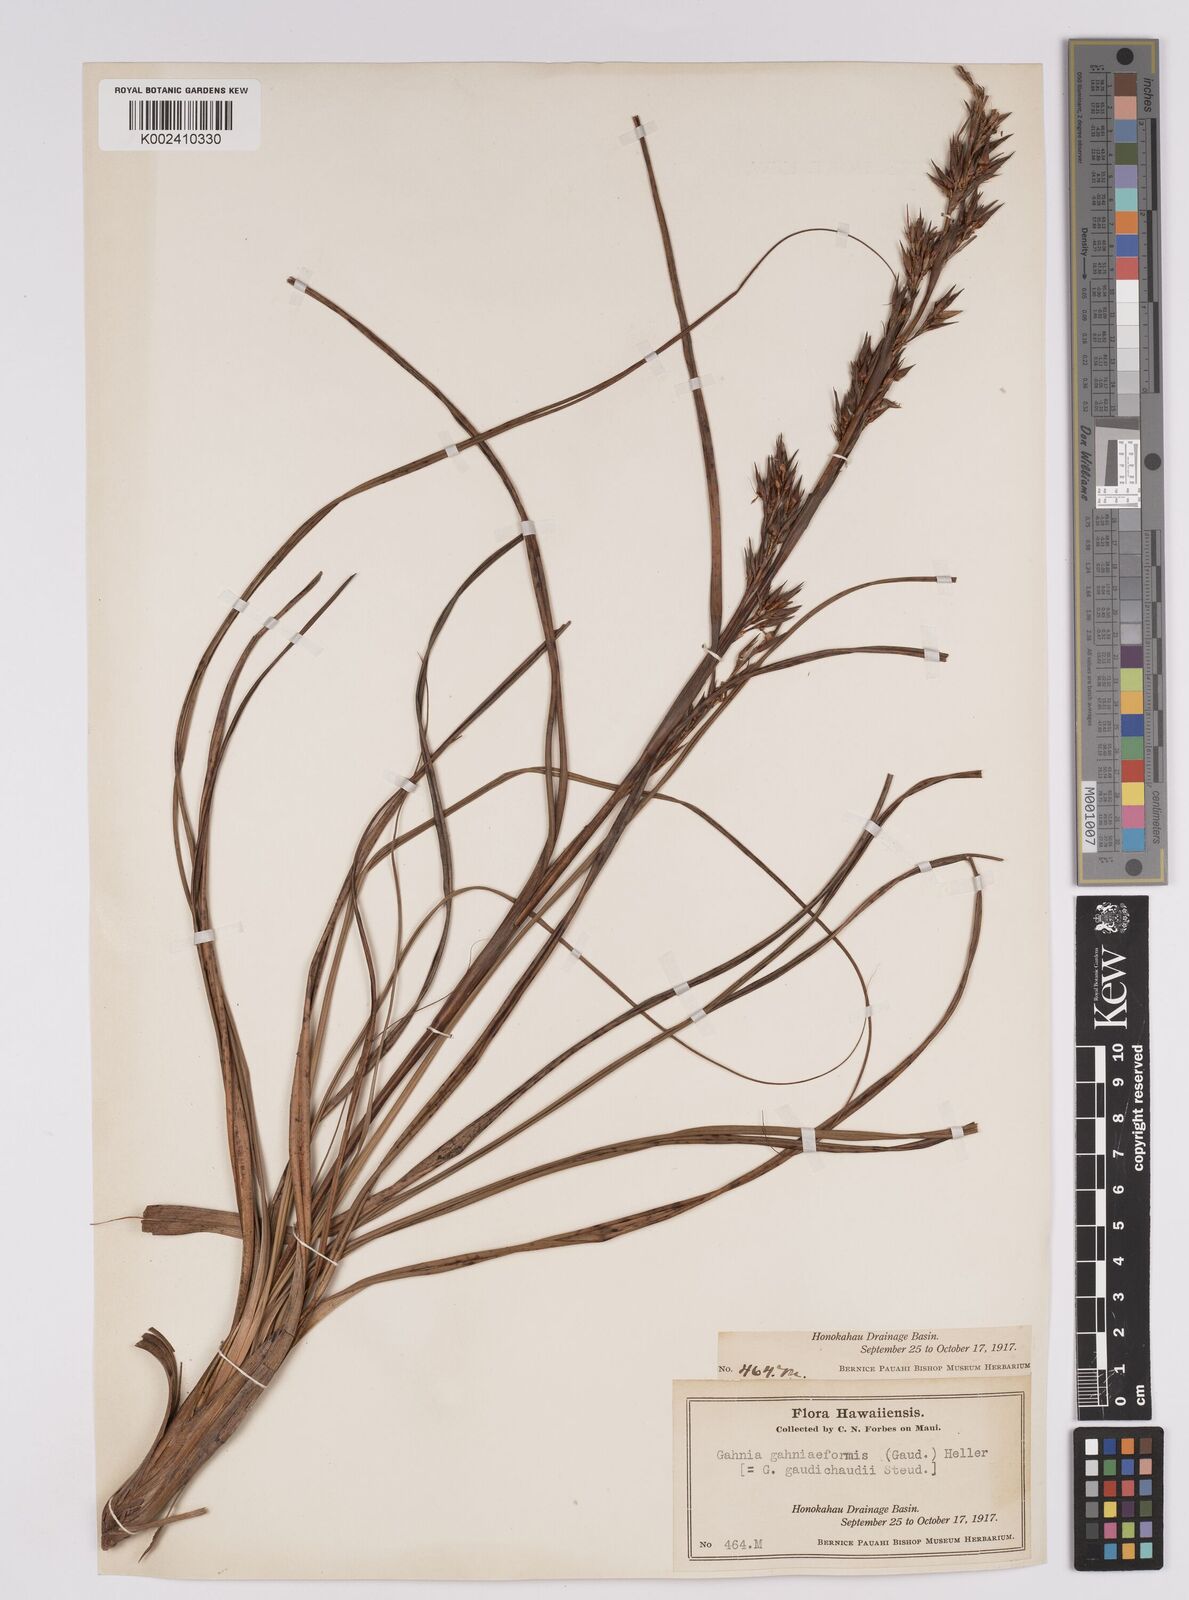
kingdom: Plantae
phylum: Tracheophyta
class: Liliopsida
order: Poales
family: Cyperaceae
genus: Morelotia
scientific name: Morelotia gahniiformis
